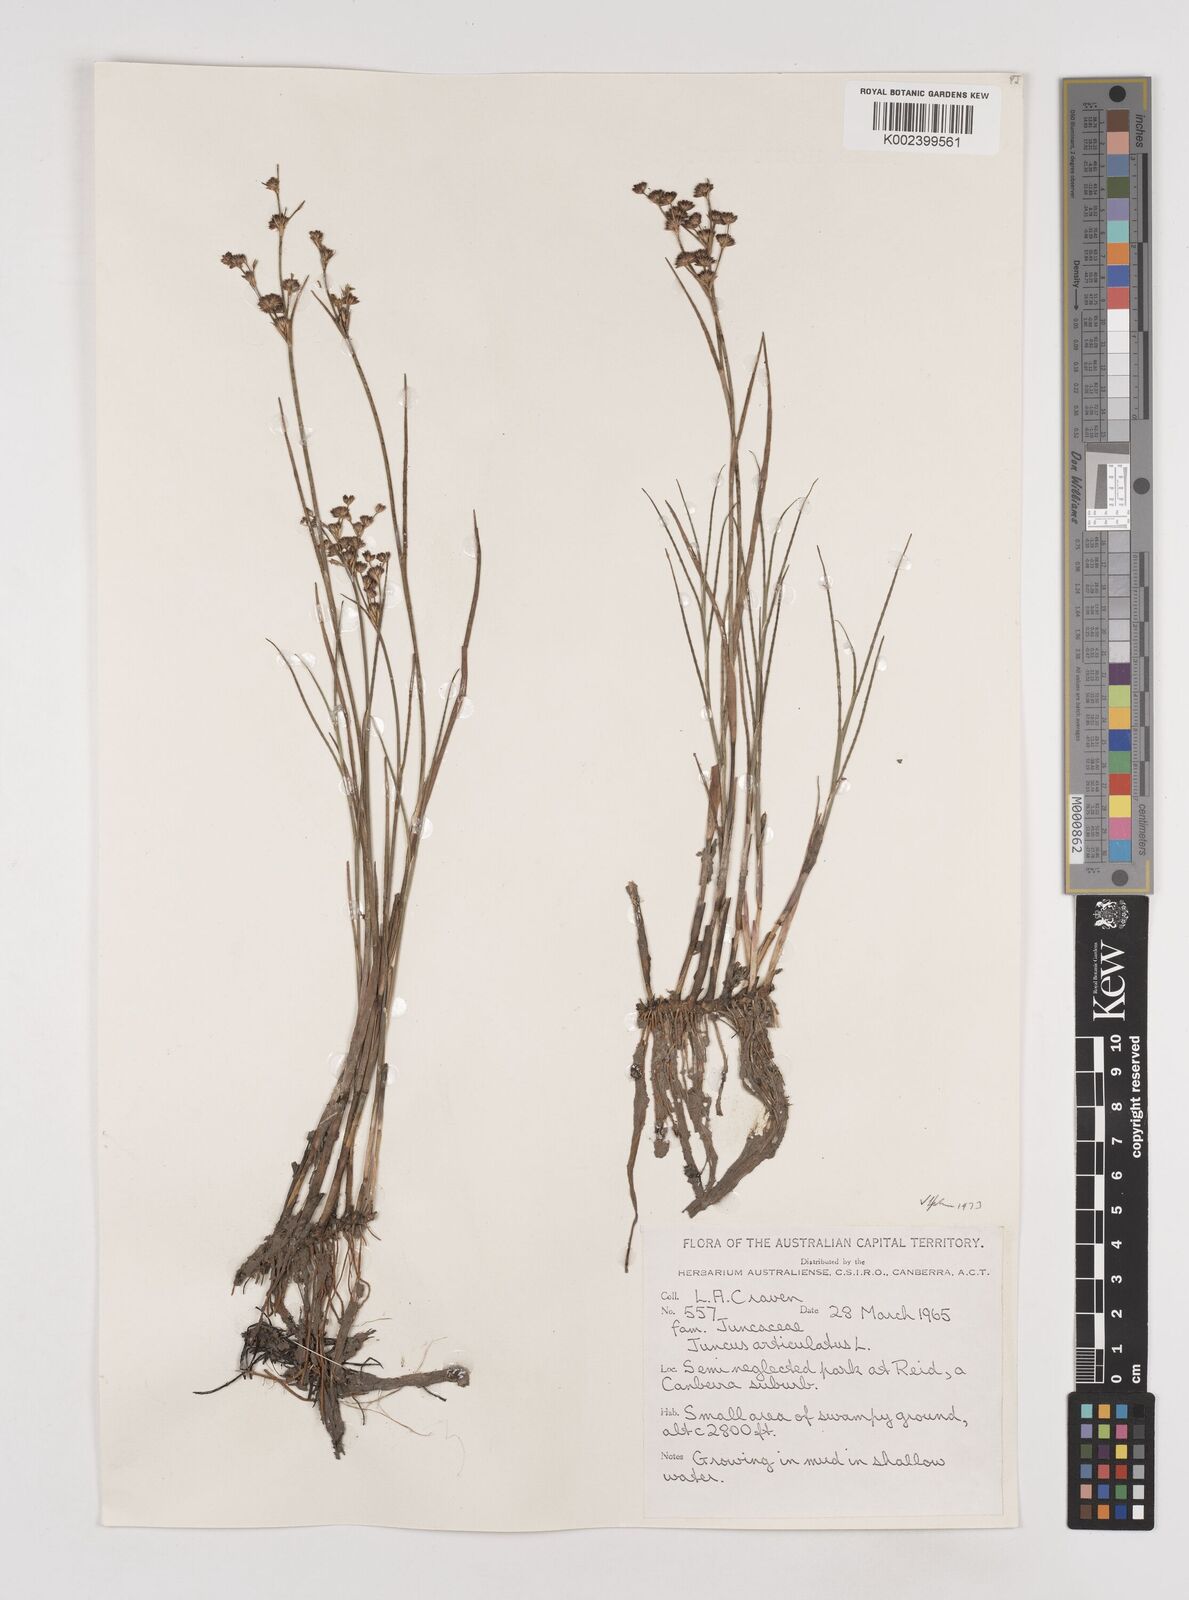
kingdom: Plantae
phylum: Tracheophyta
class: Liliopsida
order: Poales
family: Juncaceae
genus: Juncus
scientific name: Juncus articulatus
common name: Jointed rush
